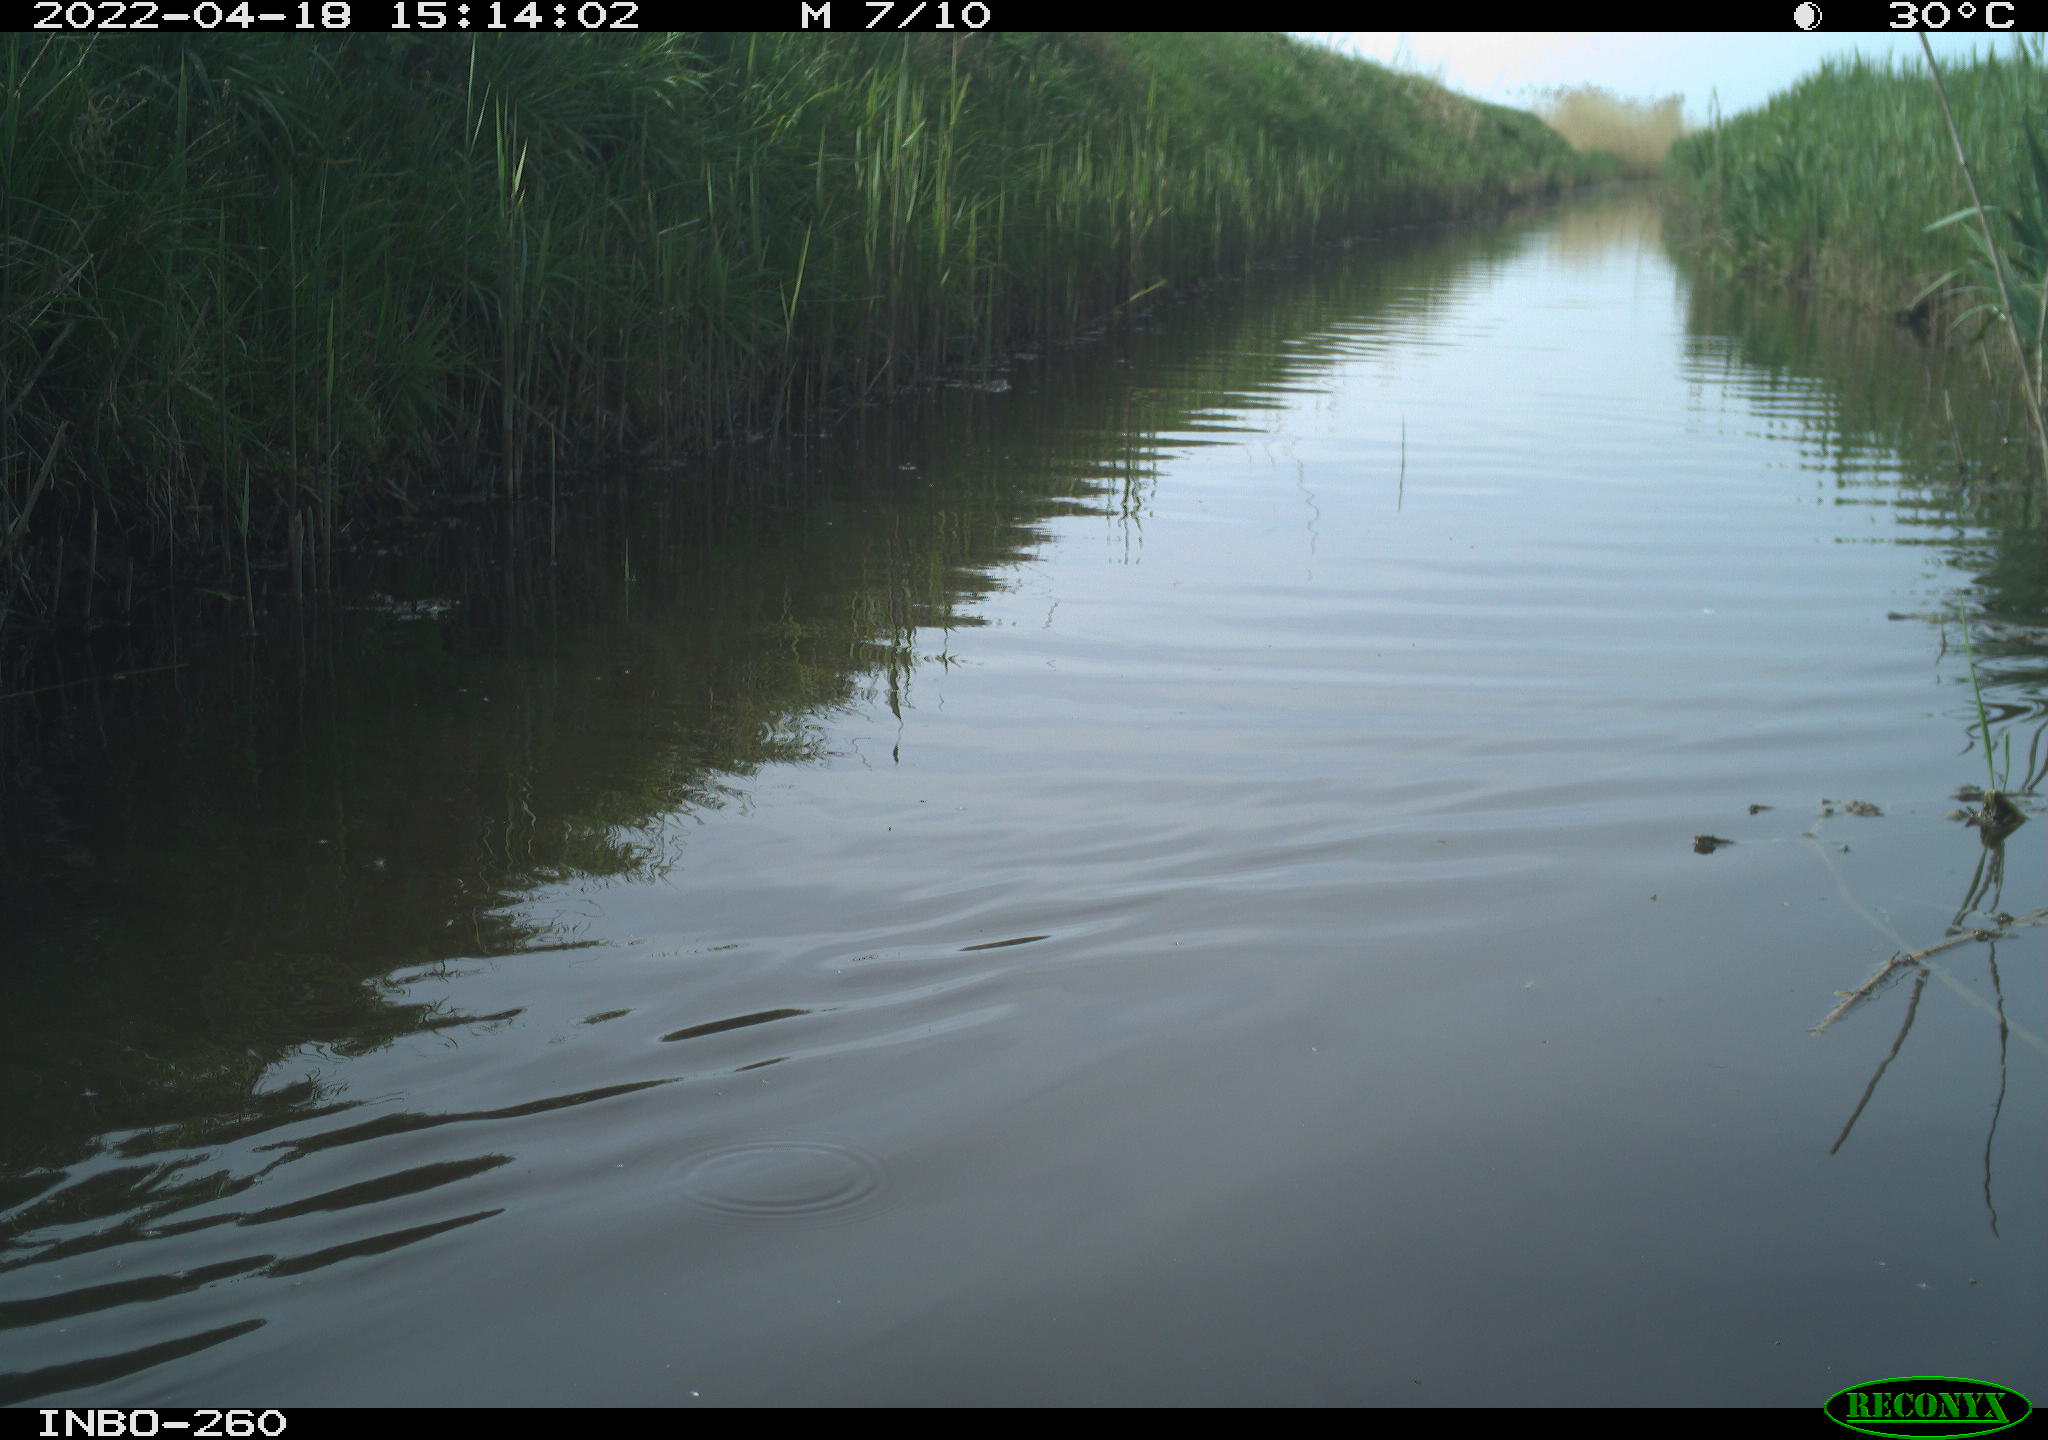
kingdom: Animalia
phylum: Chordata
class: Aves
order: Gruiformes
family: Rallidae
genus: Fulica
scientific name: Fulica atra
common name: Eurasian coot
